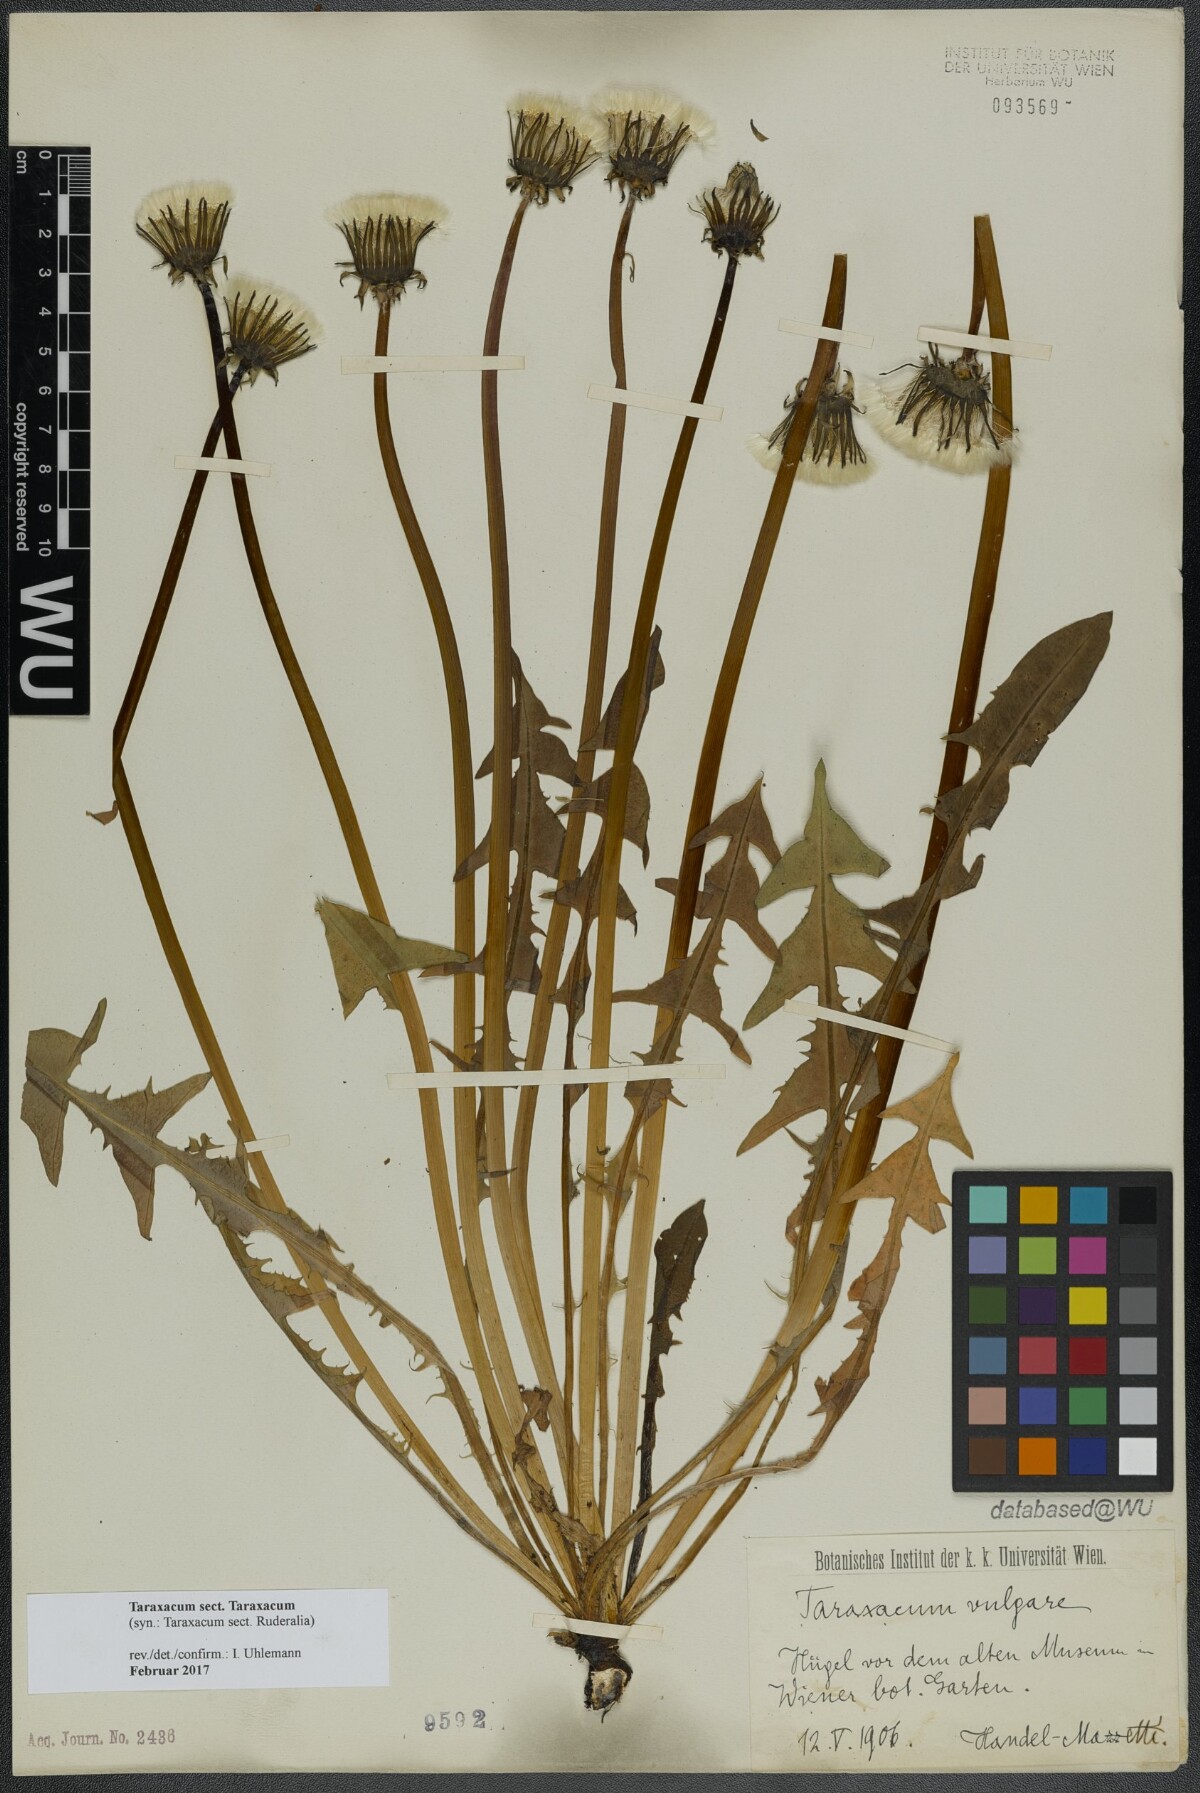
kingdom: Plantae
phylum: Tracheophyta
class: Magnoliopsida
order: Asterales
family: Asteraceae
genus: Taraxacum
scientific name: Taraxacum
